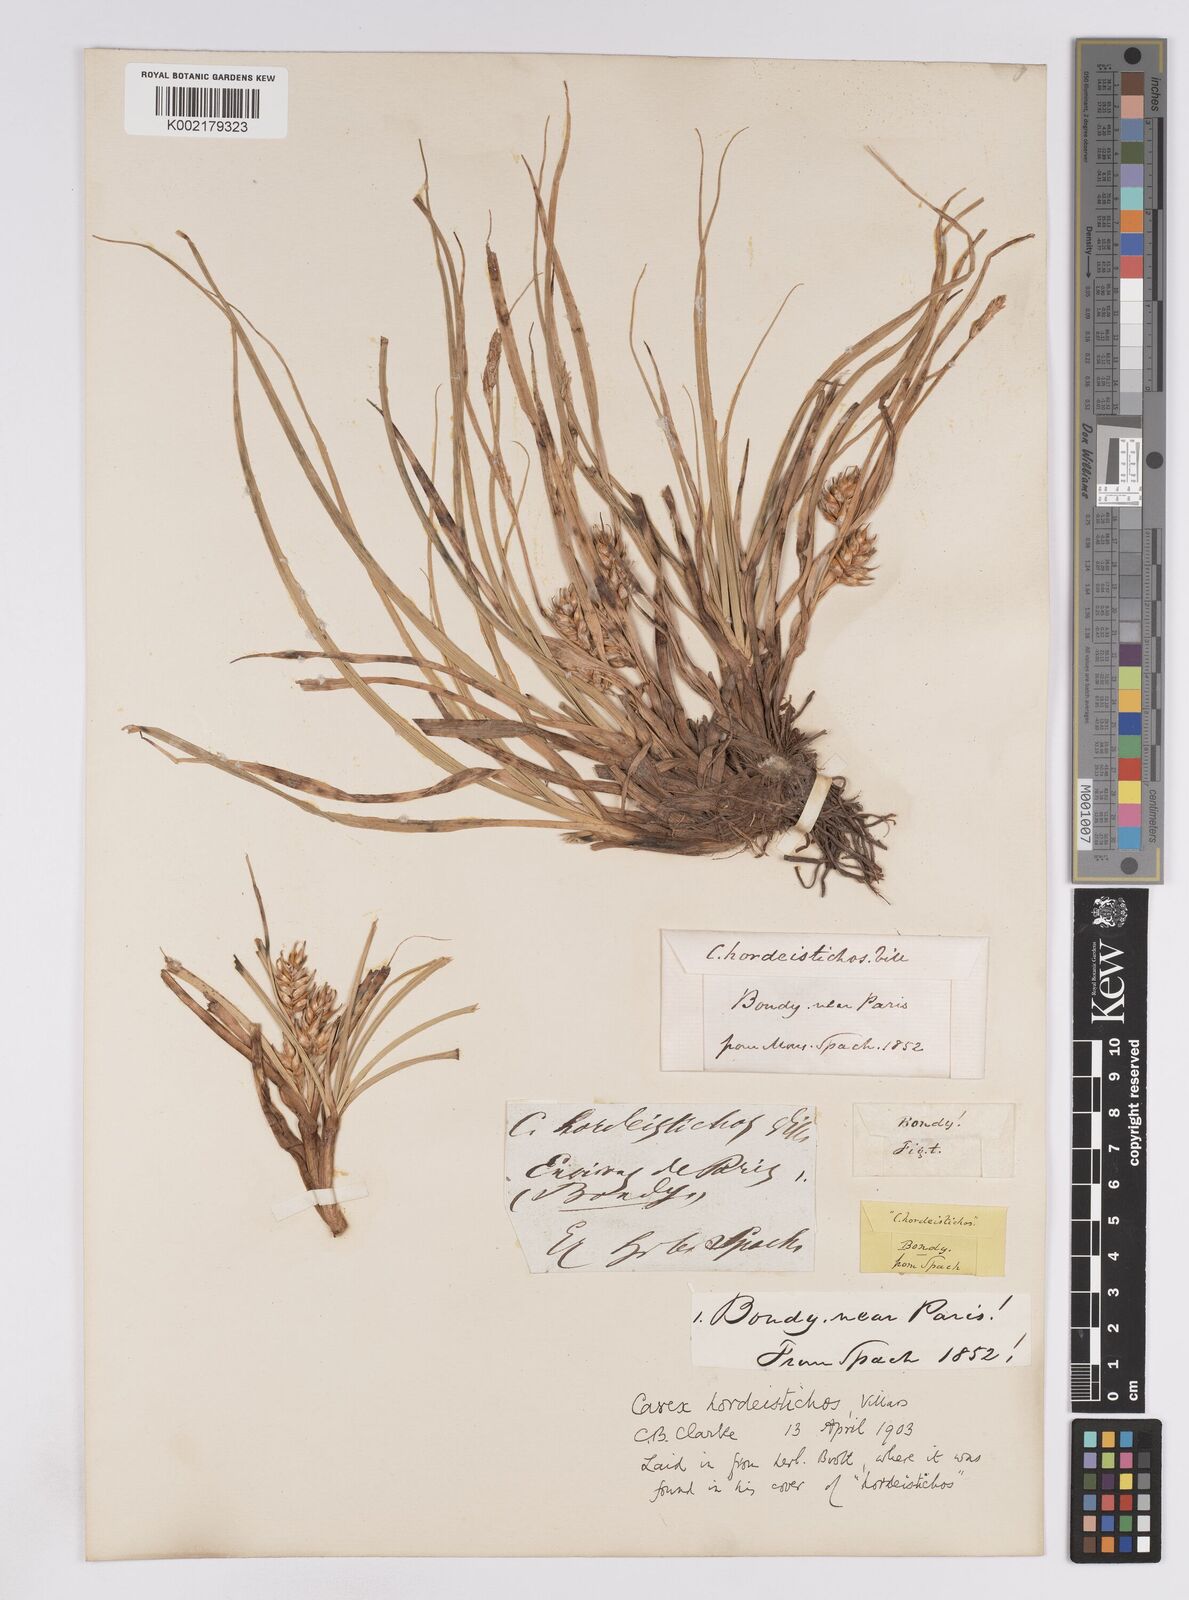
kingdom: Plantae
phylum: Tracheophyta
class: Liliopsida
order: Poales
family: Cyperaceae
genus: Carex
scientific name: Carex hordeistichos
